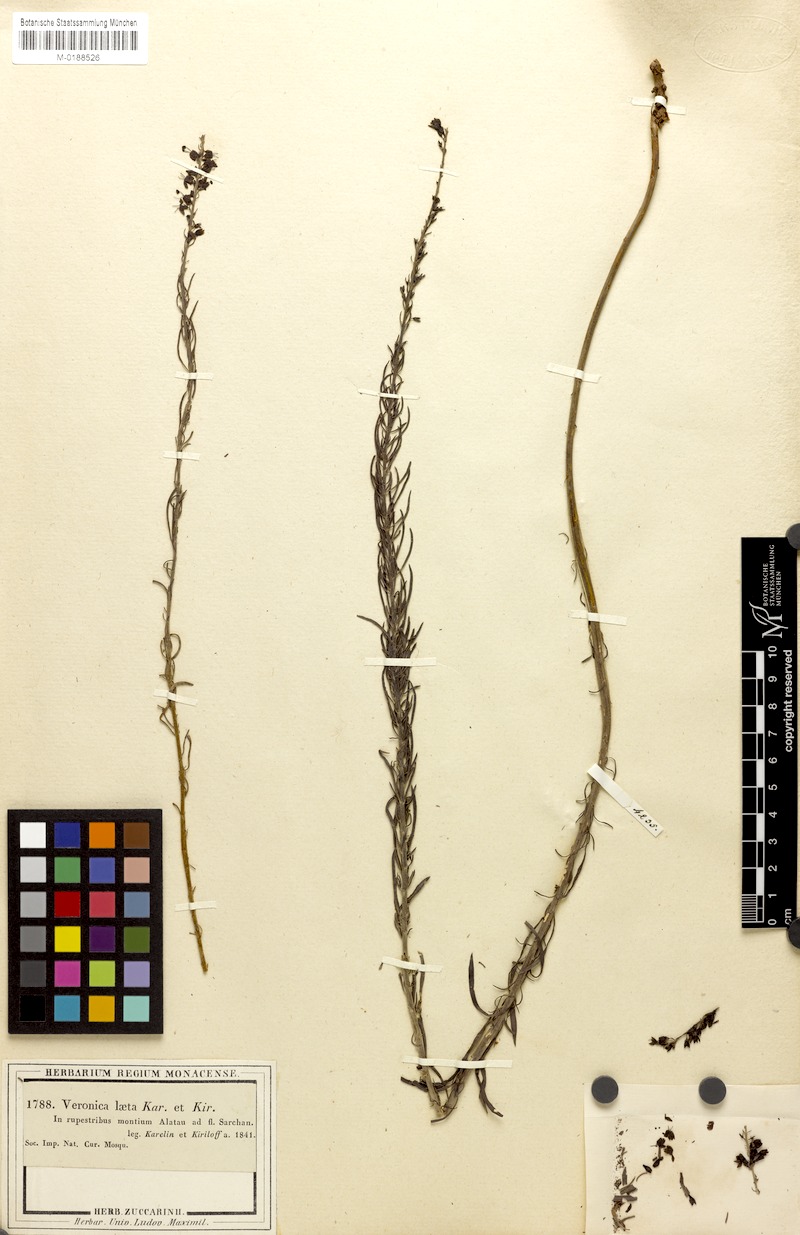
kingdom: Plantae
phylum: Tracheophyta
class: Magnoliopsida
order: Lamiales
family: Plantaginaceae
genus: Veronica
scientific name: Veronica pinnata
